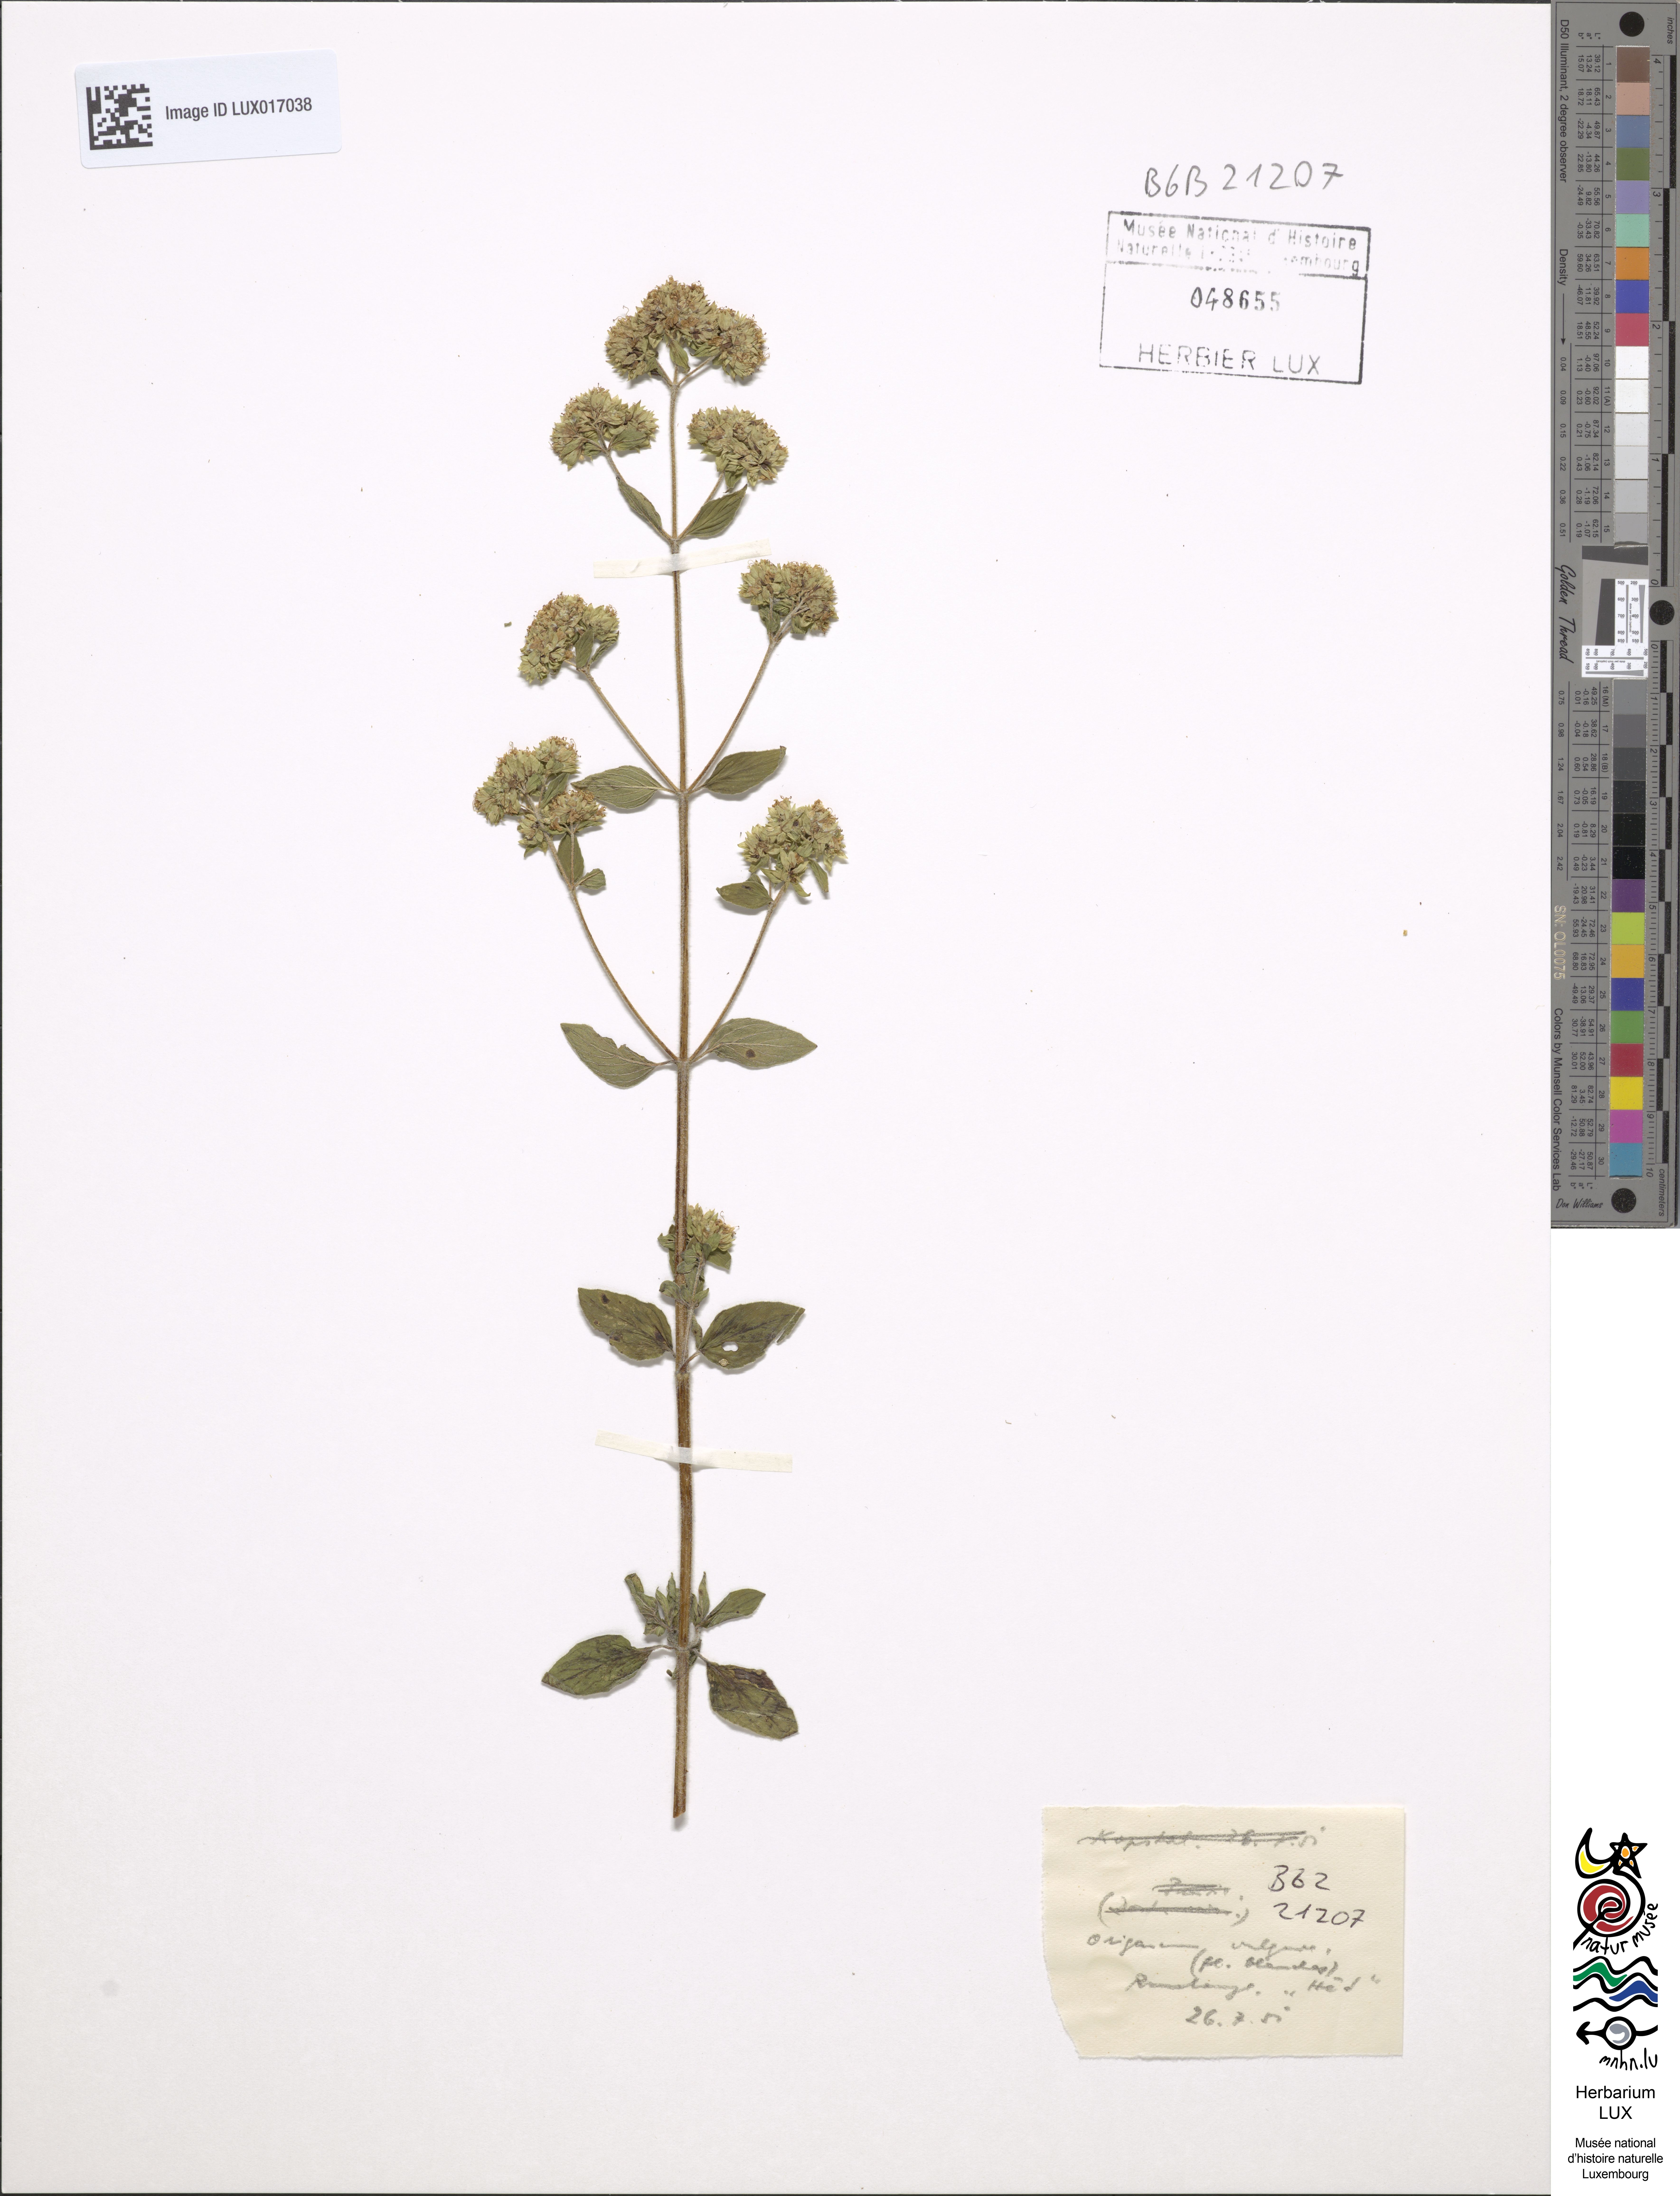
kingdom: Plantae
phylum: Tracheophyta
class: Magnoliopsida
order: Lamiales
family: Lamiaceae
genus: Origanum
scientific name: Origanum vulgare
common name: Wild marjoram
